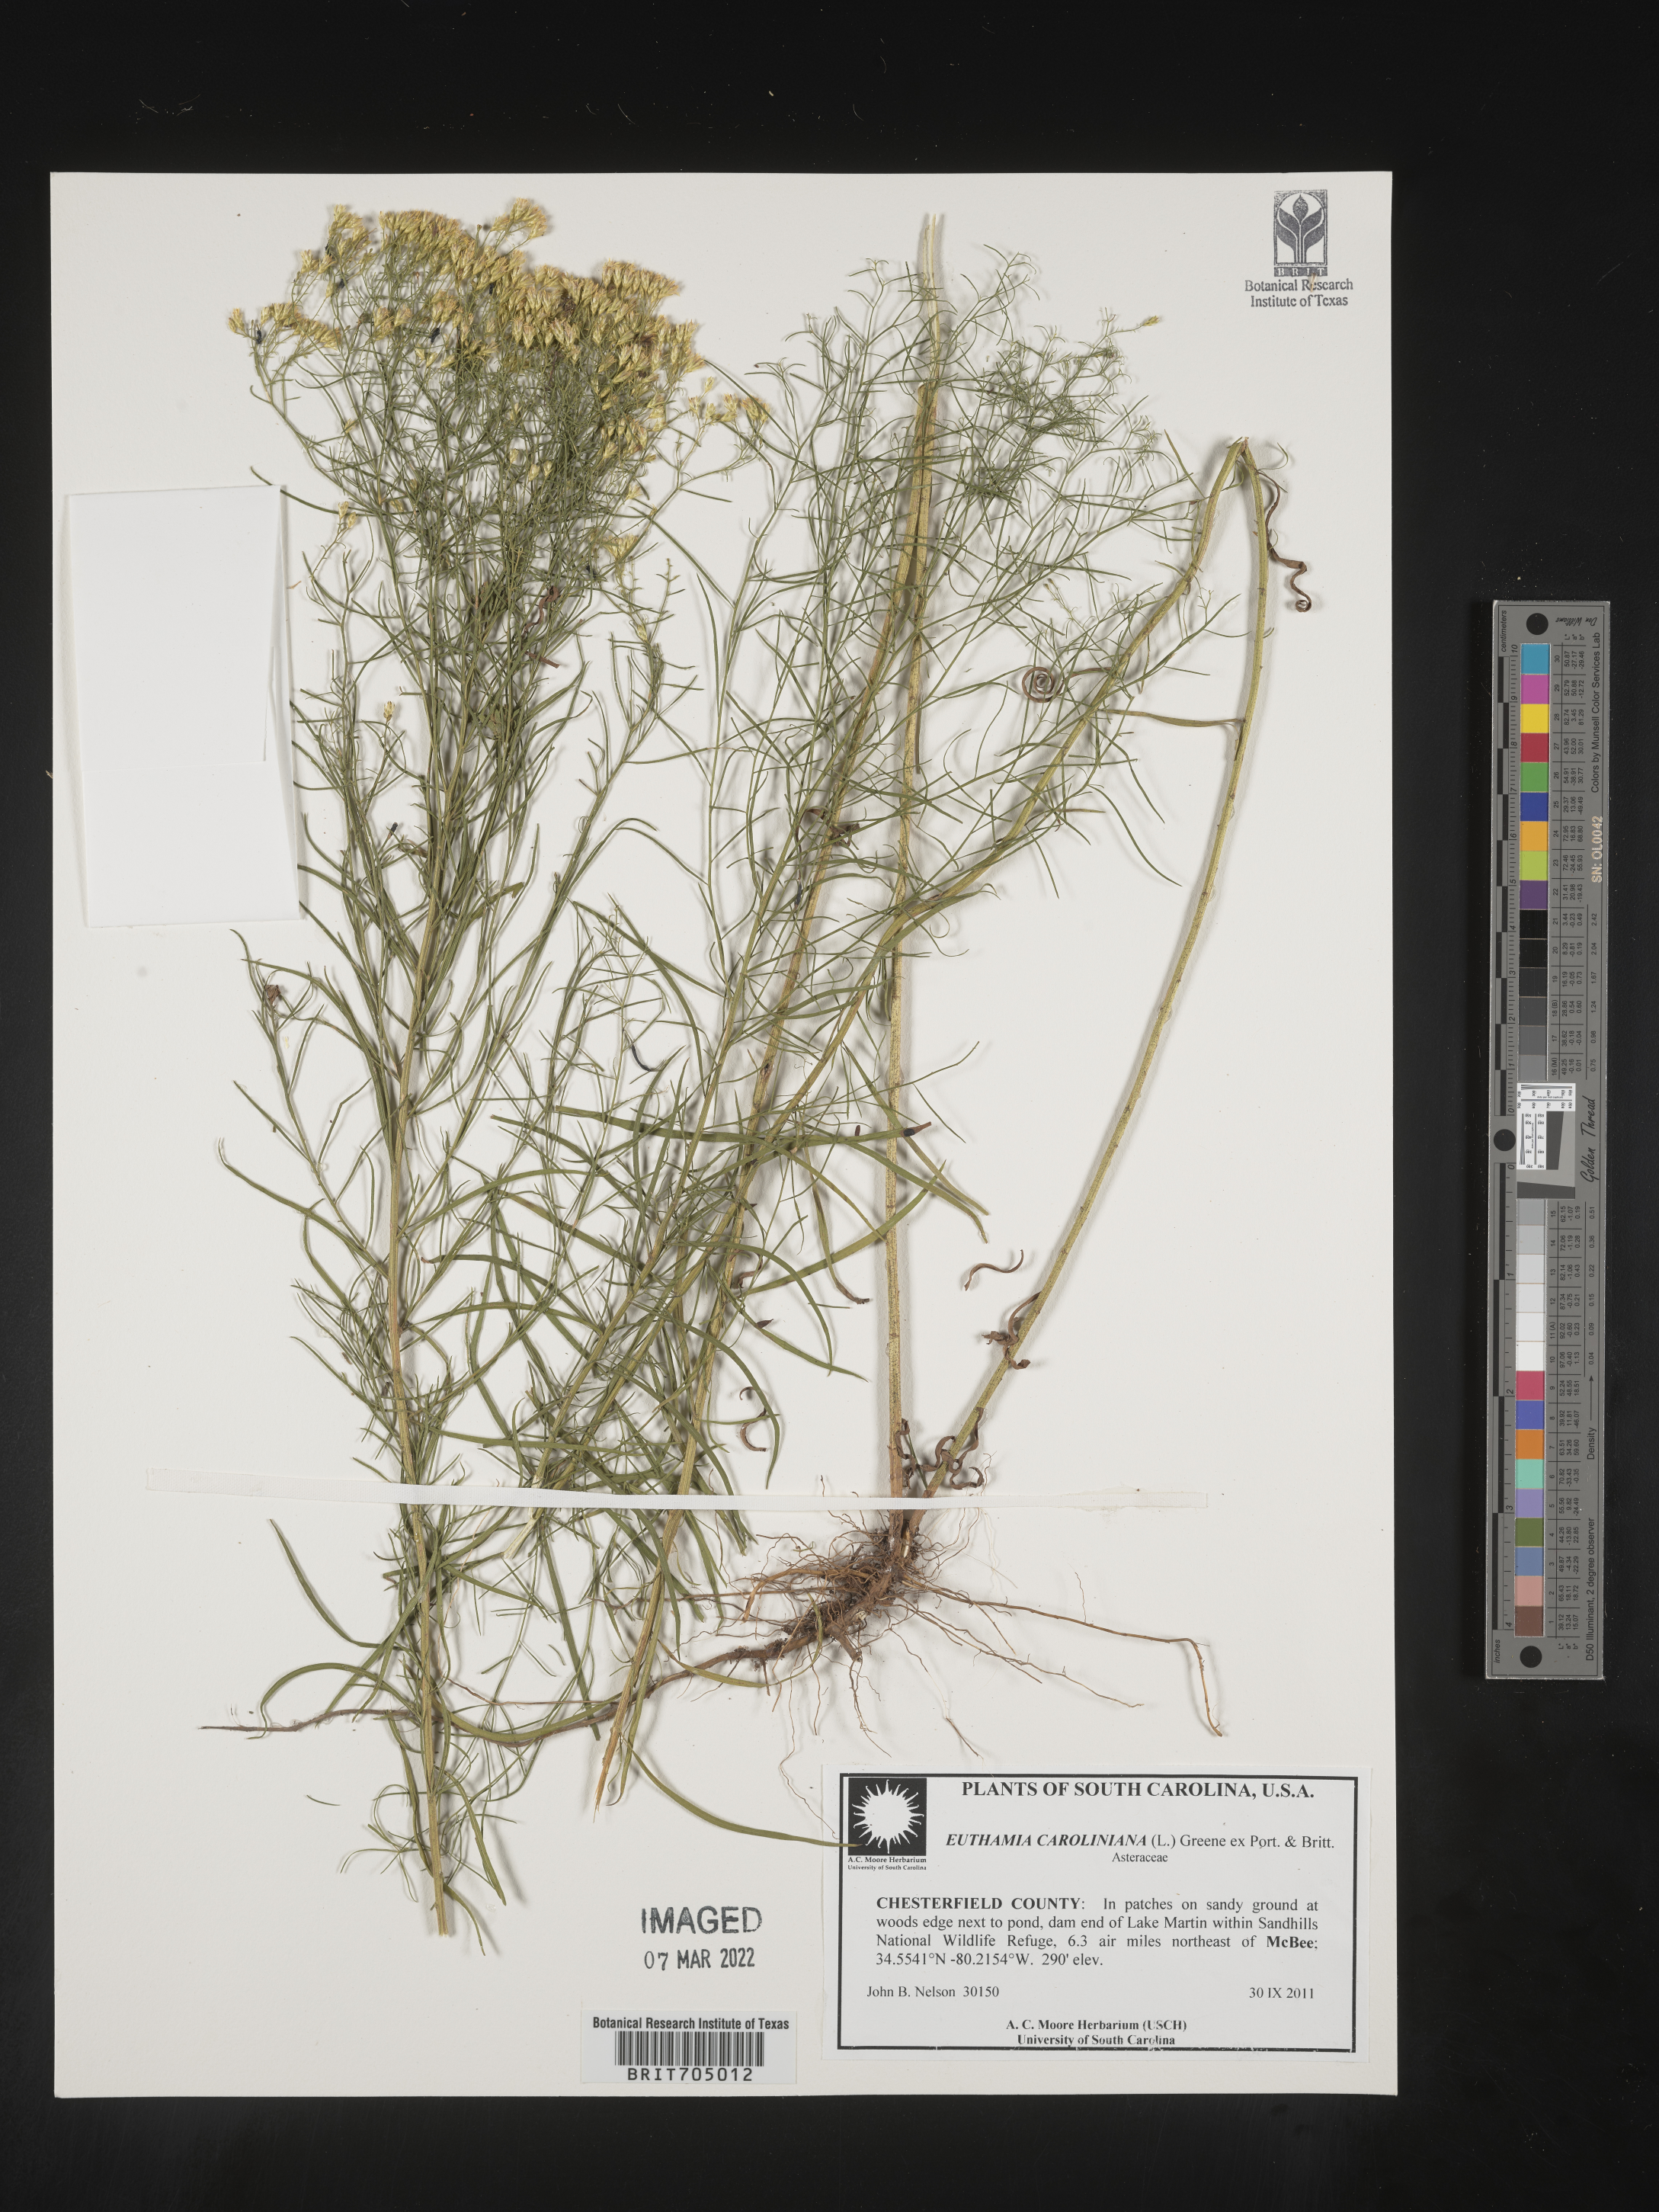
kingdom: Plantae
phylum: Tracheophyta
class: Magnoliopsida
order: Asterales
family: Asteraceae
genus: Euthamia
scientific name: Euthamia caroliniana
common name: Coastal plain goldentop
